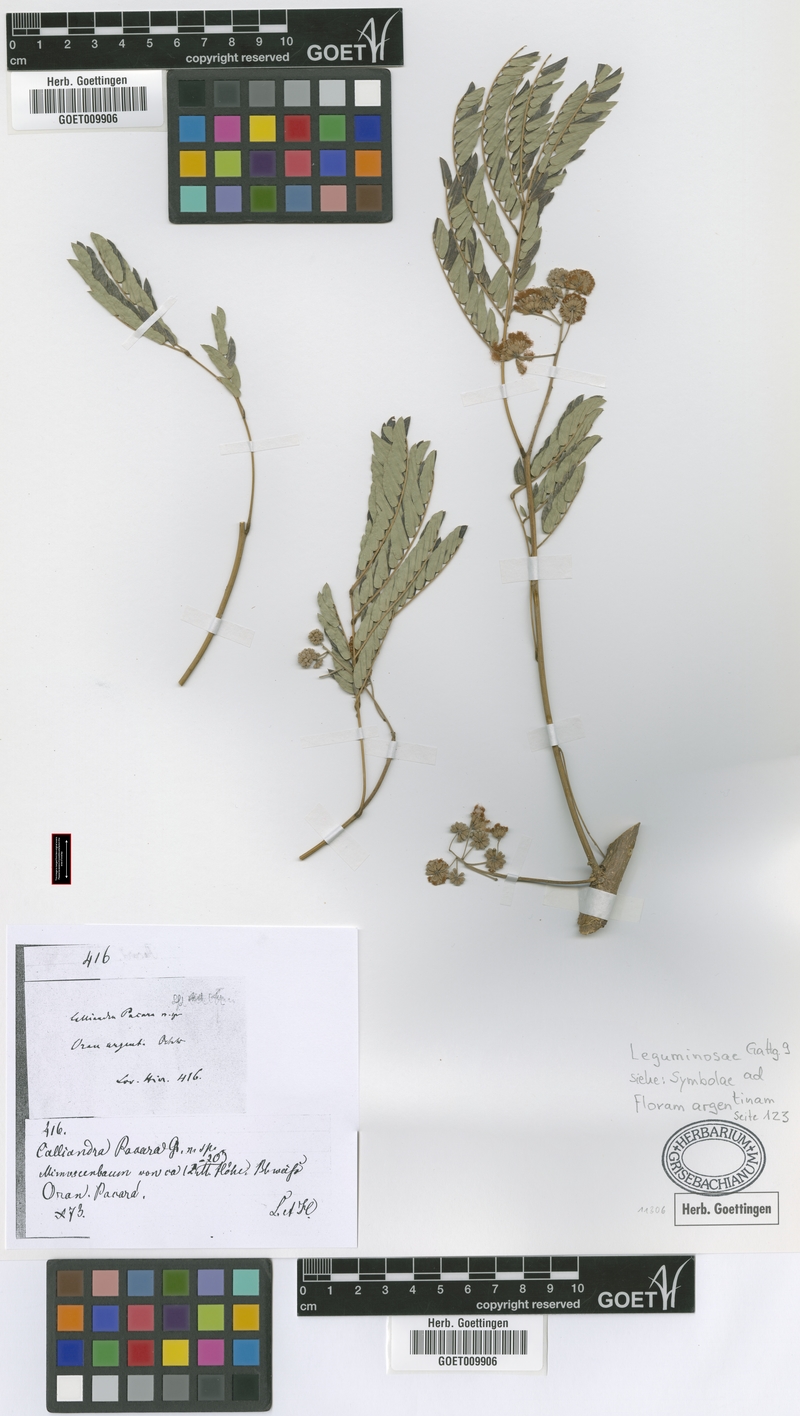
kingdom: Plantae
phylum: Tracheophyta
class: Magnoliopsida
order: Fabales
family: Fabaceae
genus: Enterolobium
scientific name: Enterolobium contortisiliquum
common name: Pacara earpod tree
